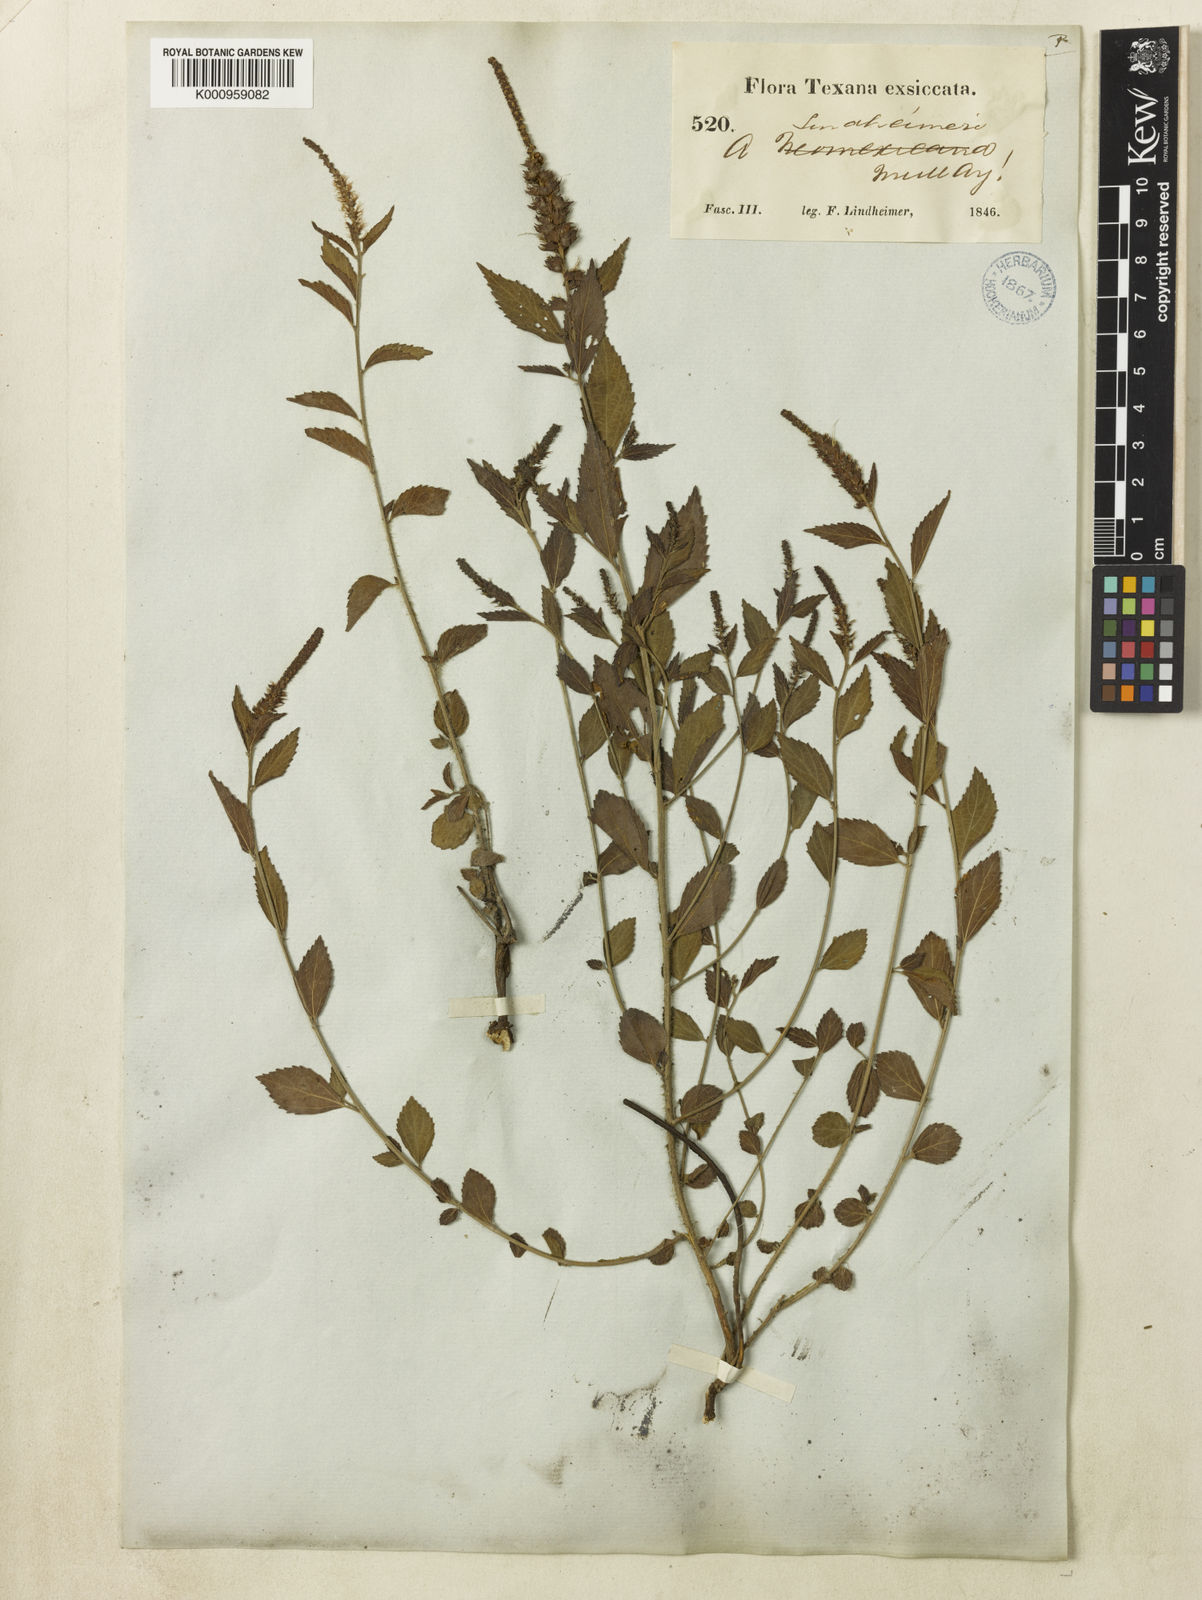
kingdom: Plantae
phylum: Tracheophyta
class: Magnoliopsida
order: Malpighiales
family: Euphorbiaceae
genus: Acalypha
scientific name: Acalypha phleoides
